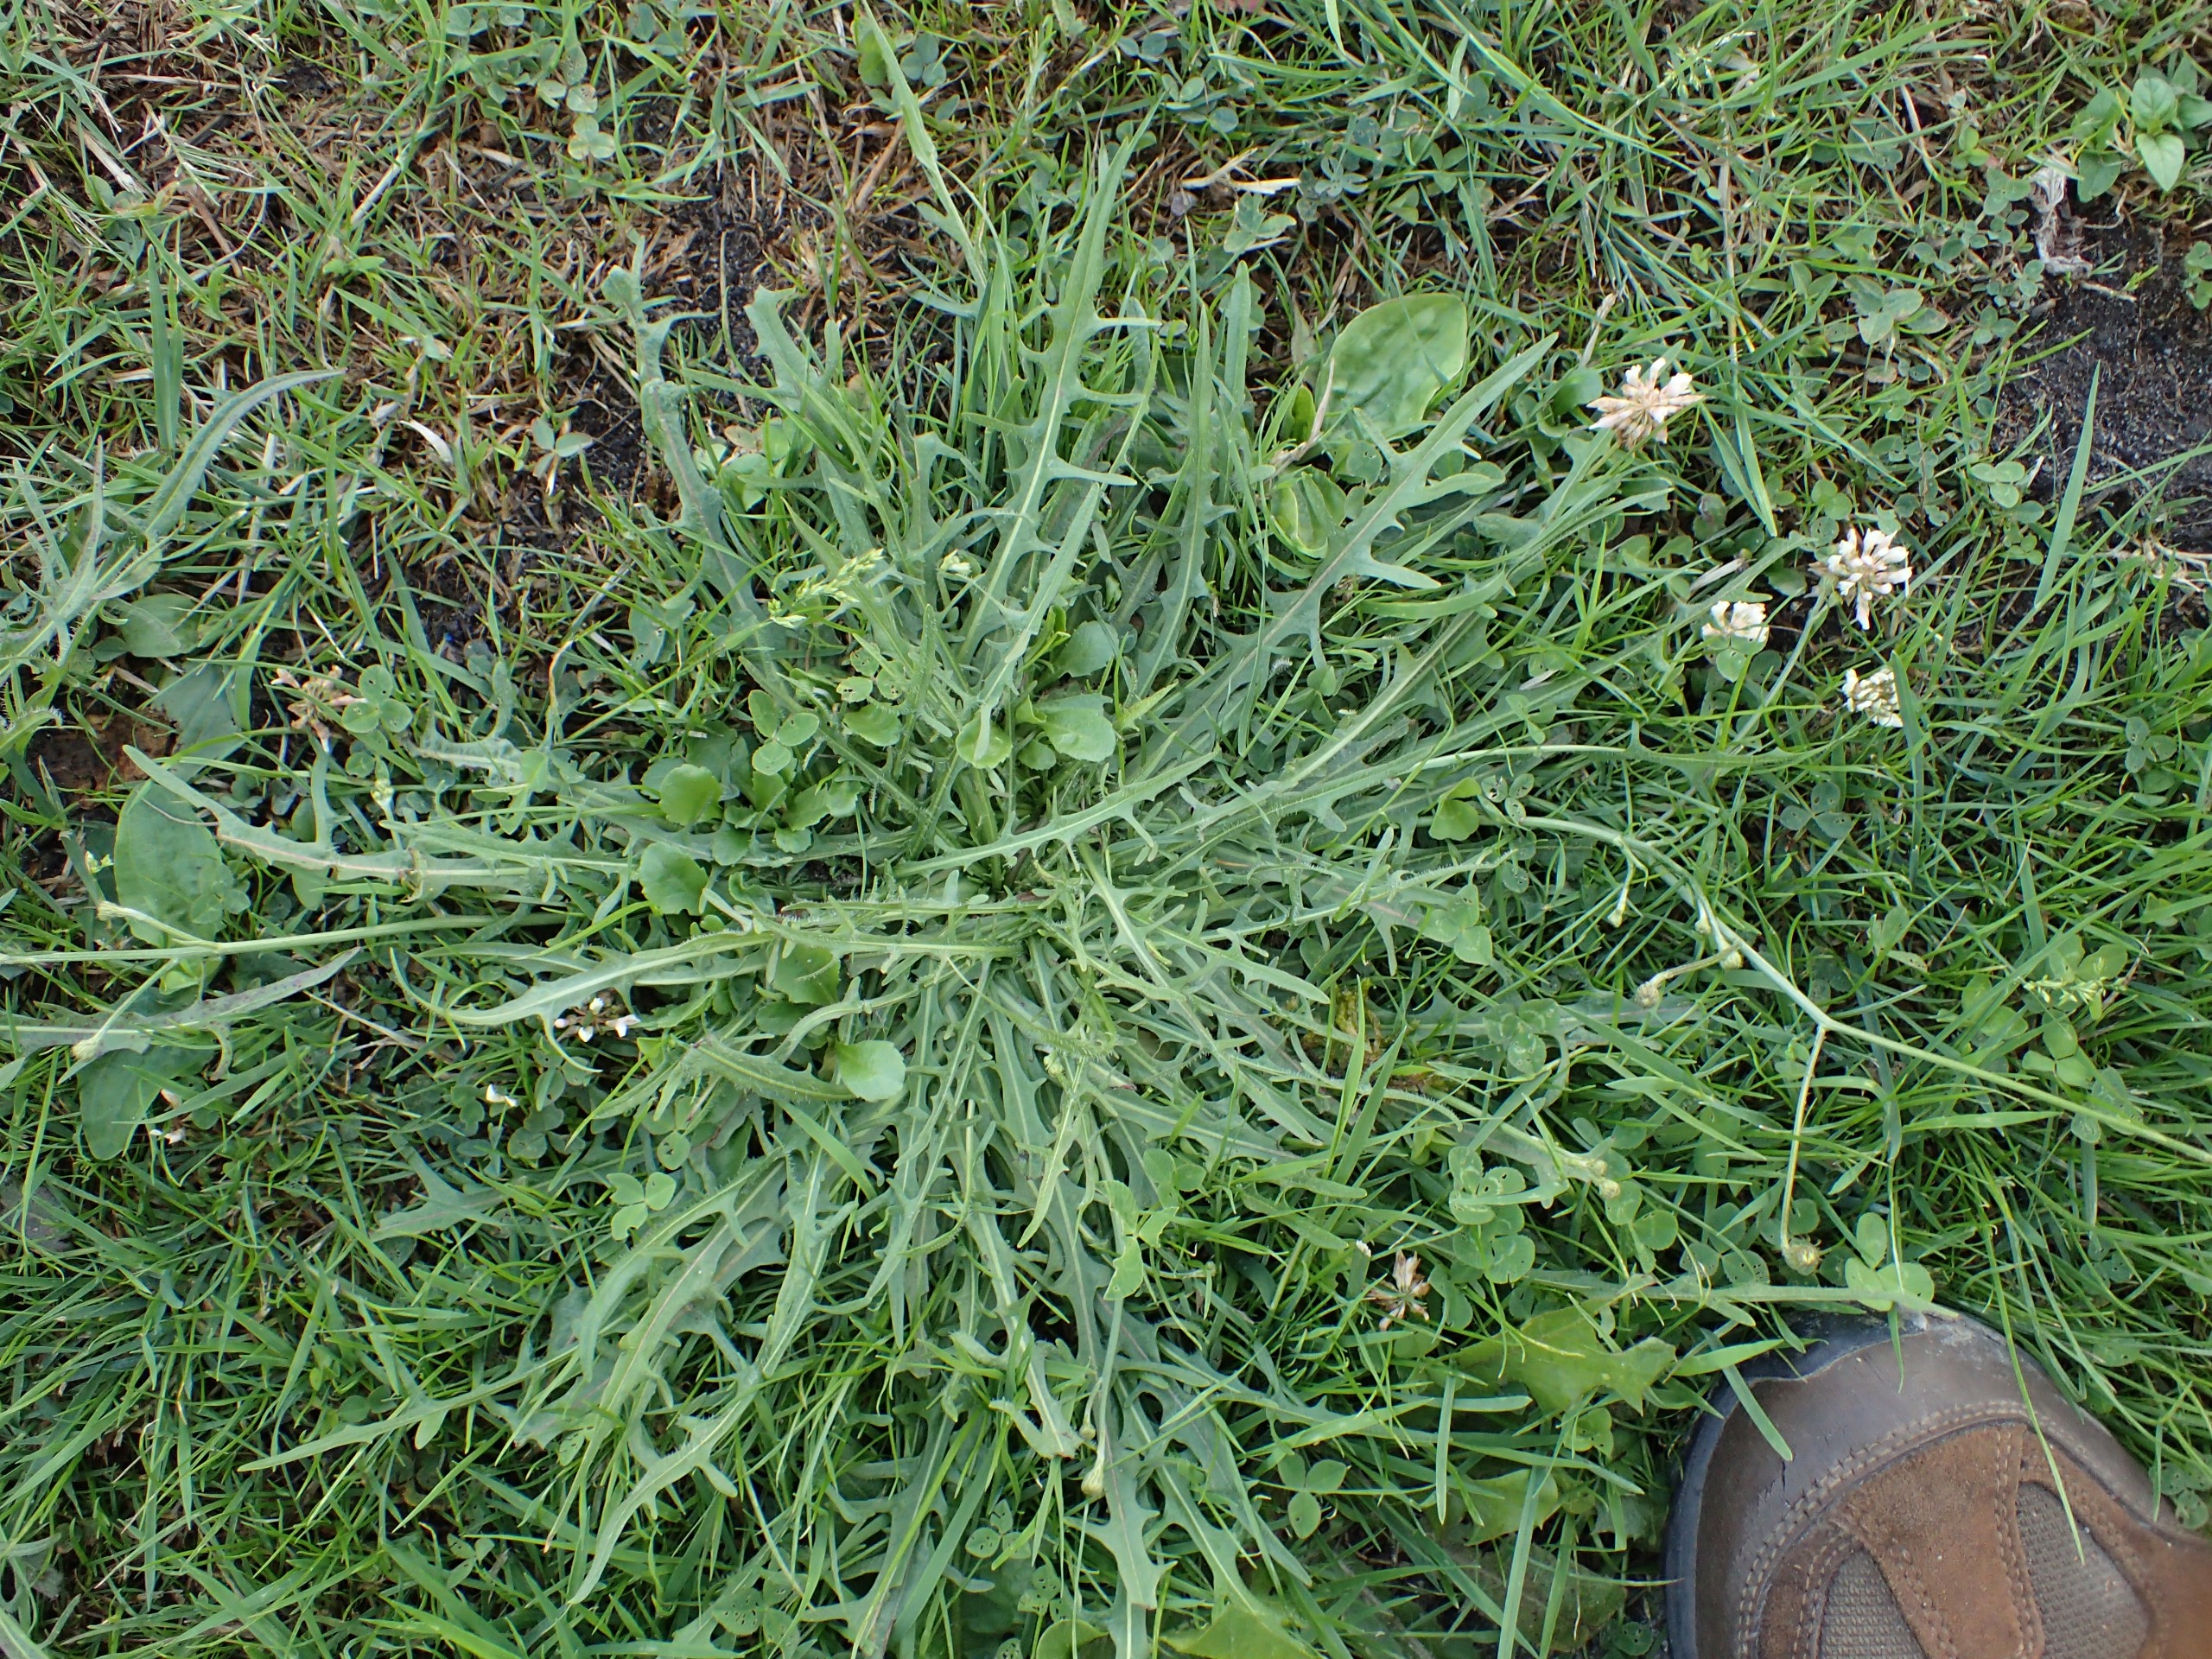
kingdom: Plantae
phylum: Tracheophyta
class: Magnoliopsida
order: Asterales
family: Asteraceae
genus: Scorzoneroides
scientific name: Scorzoneroides autumnalis
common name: Høst-borst
